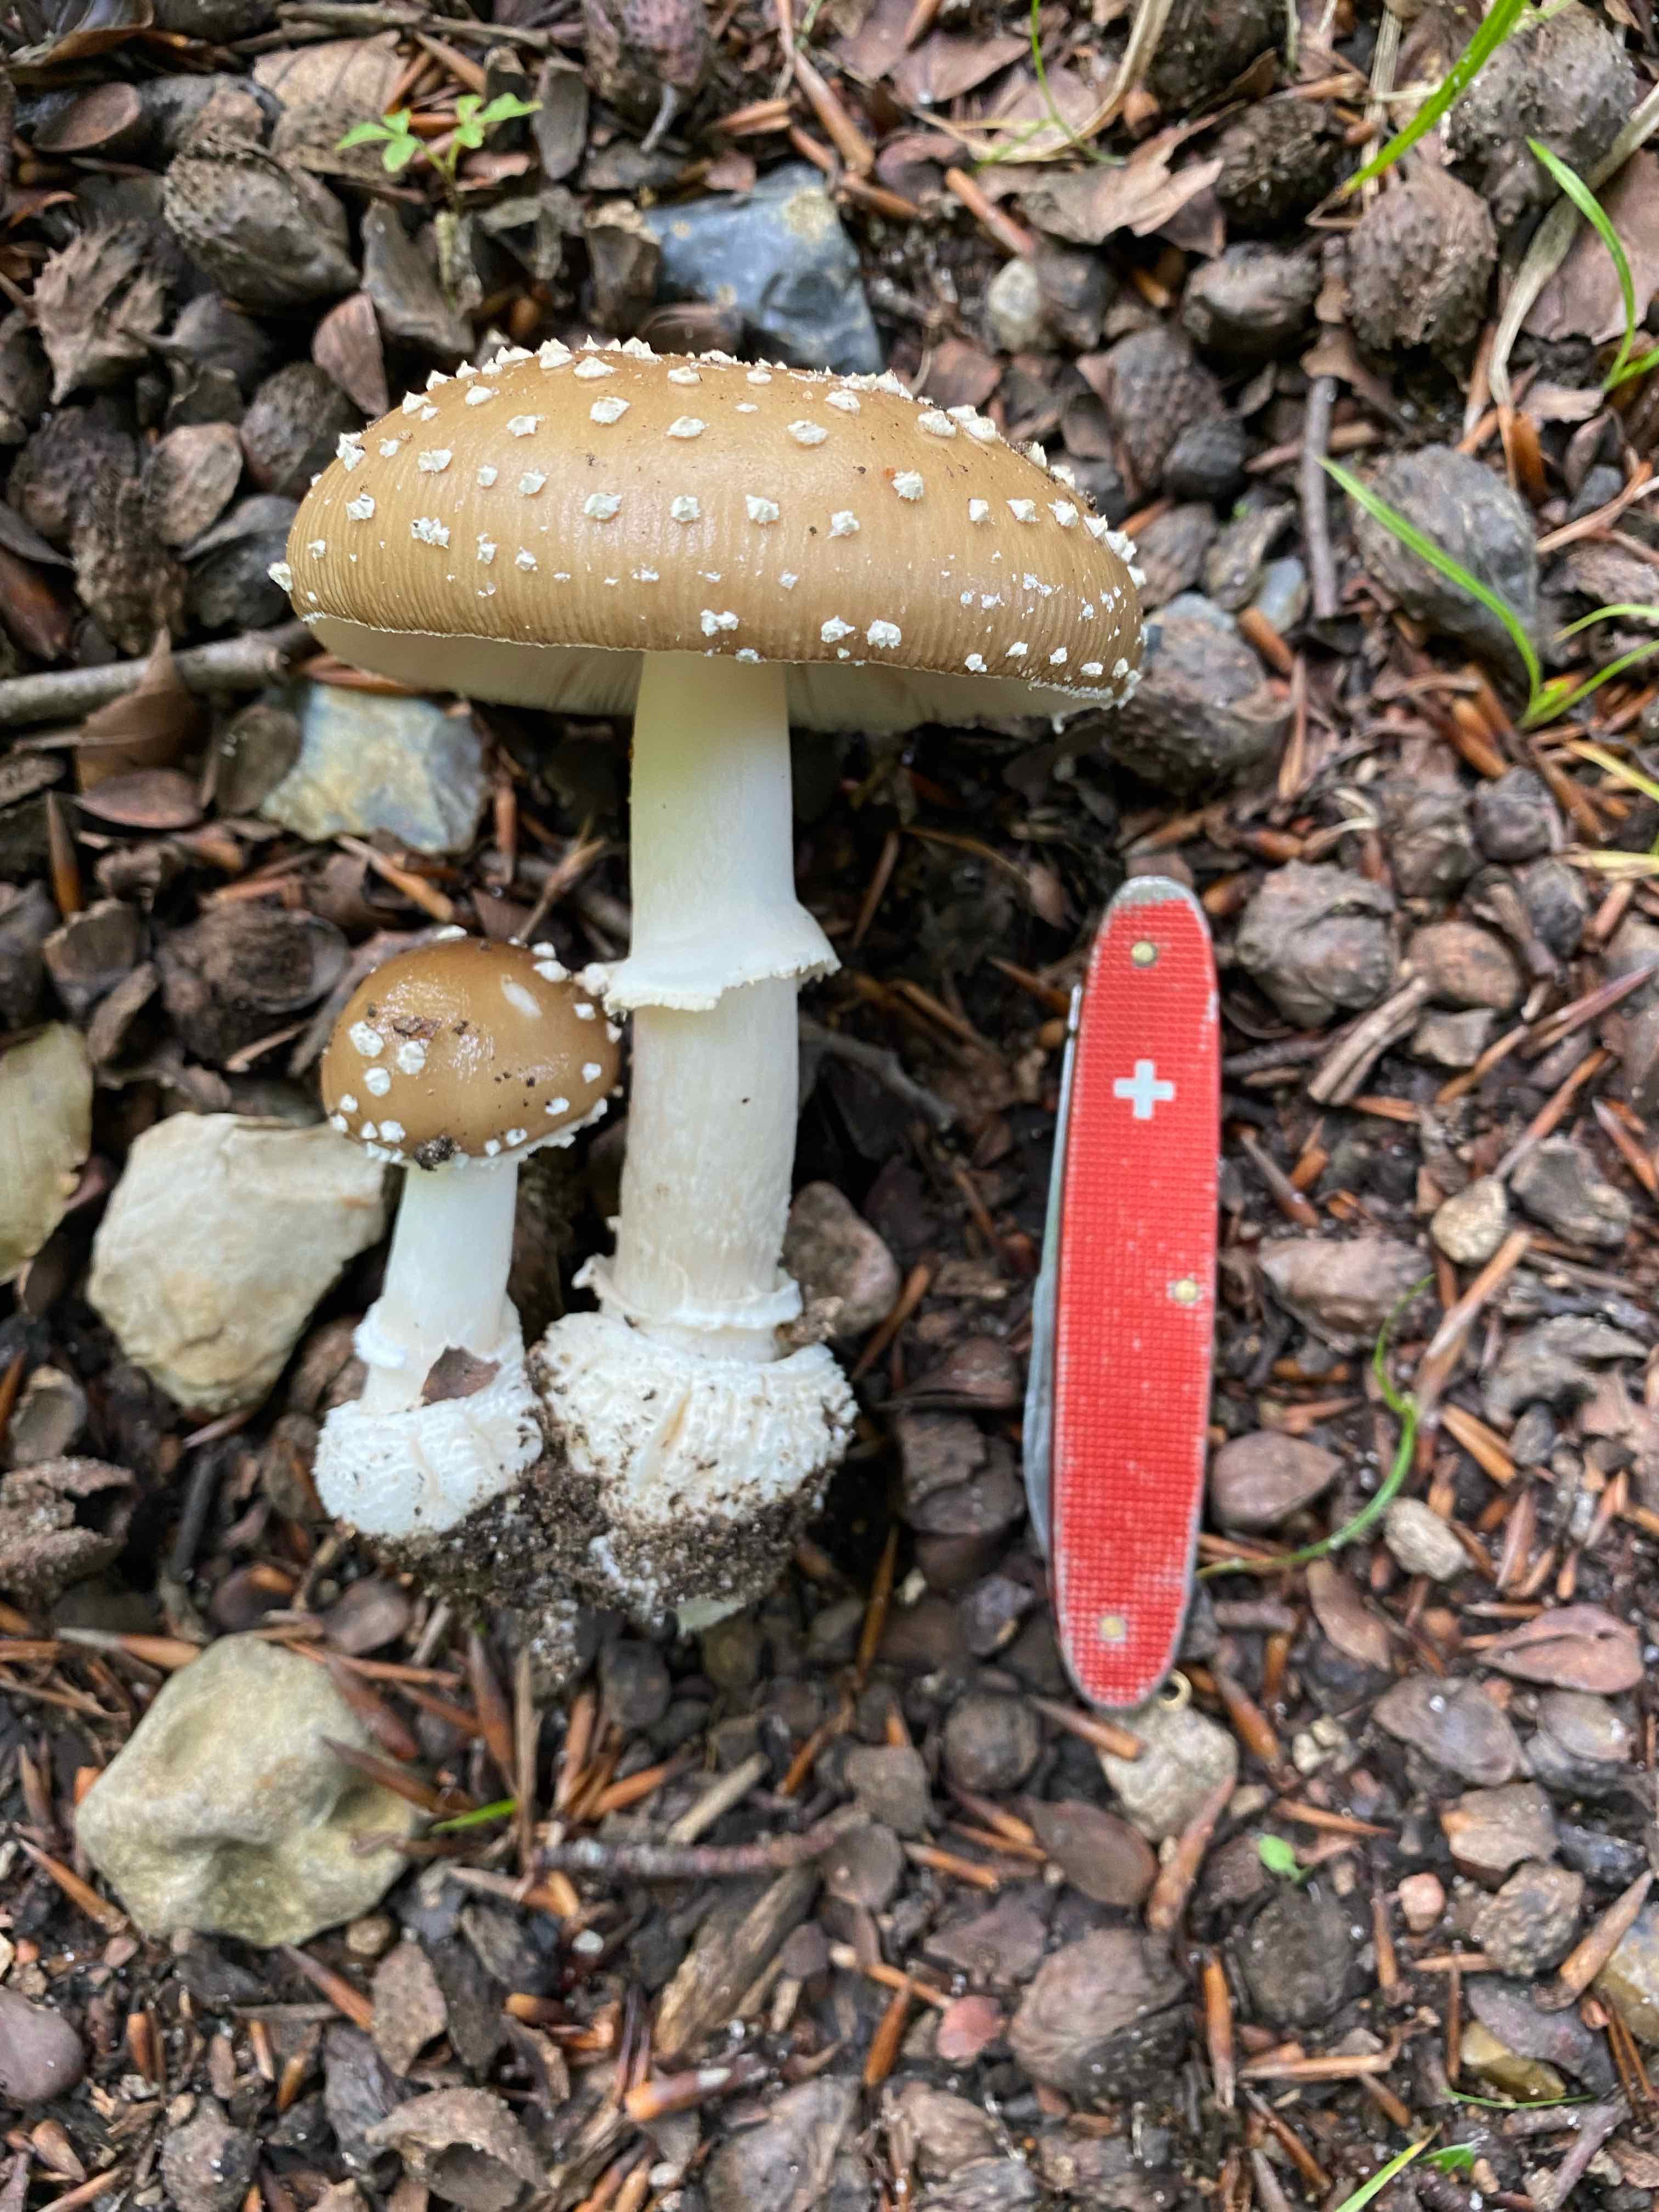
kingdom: Fungi
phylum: Basidiomycota
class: Agaricomycetes
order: Agaricales
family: Amanitaceae
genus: Amanita
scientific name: Amanita pantherina
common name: panter-fluesvamp
